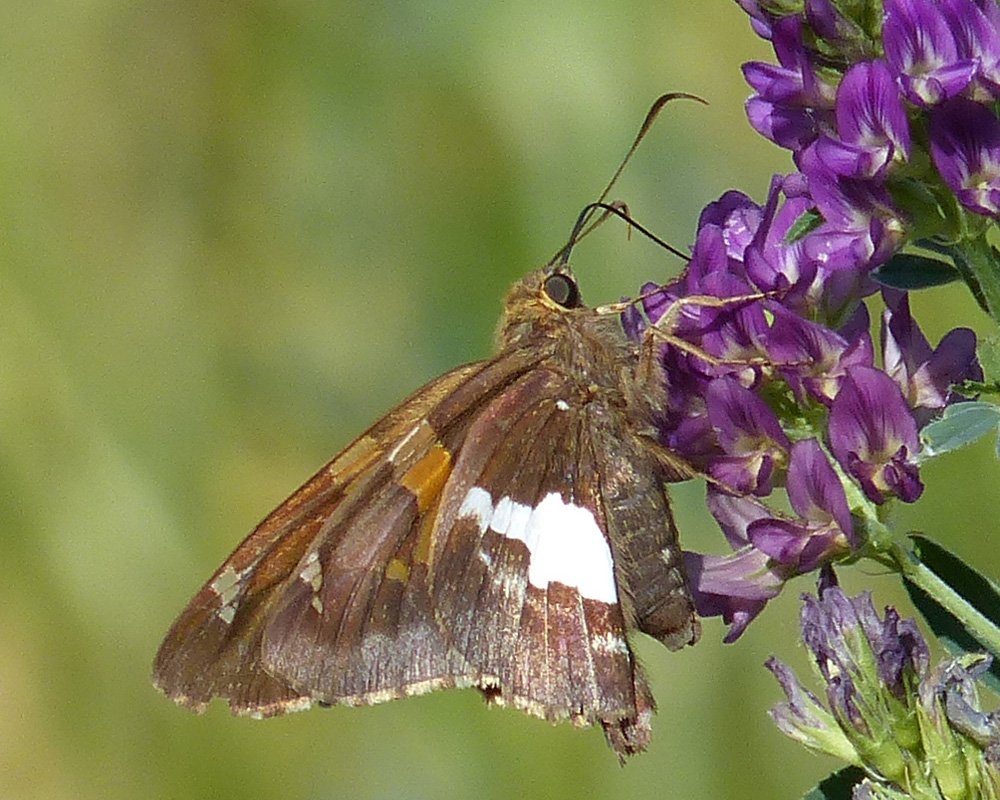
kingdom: Animalia
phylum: Arthropoda
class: Insecta
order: Lepidoptera
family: Hesperiidae
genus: Epargyreus
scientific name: Epargyreus clarus
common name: Silver-spotted Skipper
